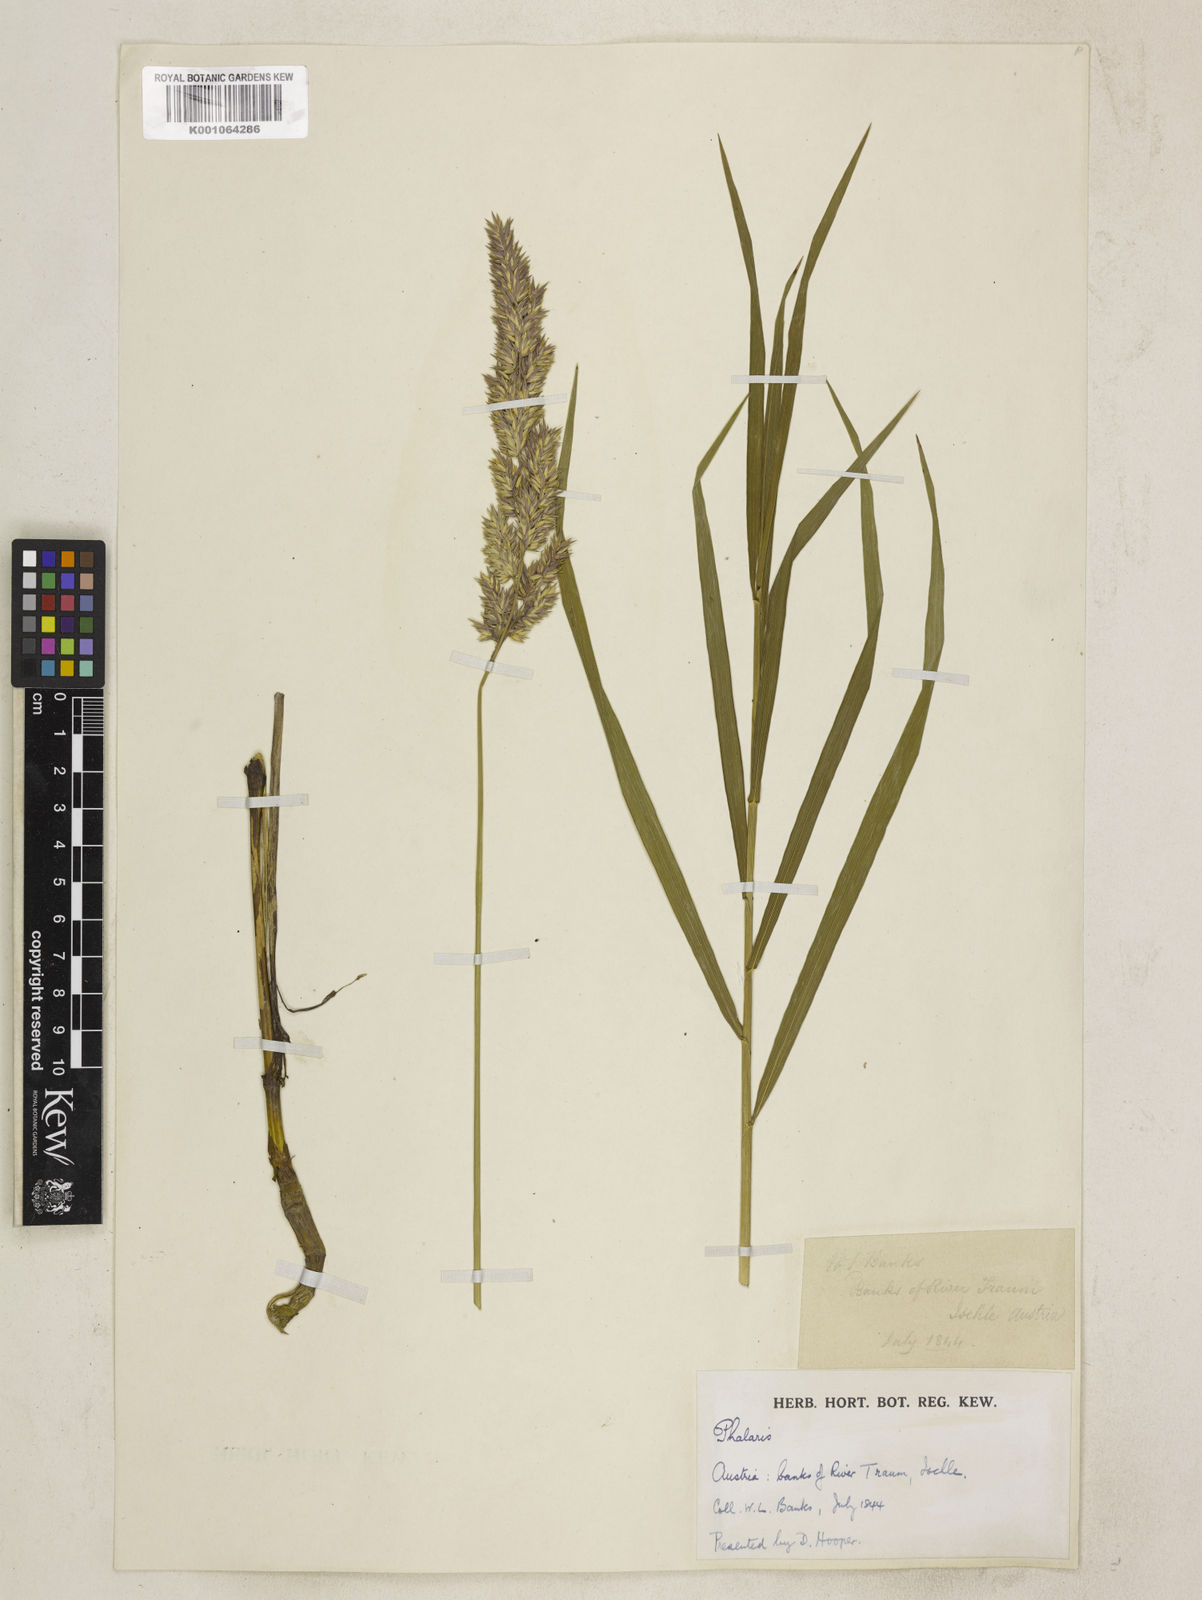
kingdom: Plantae
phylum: Tracheophyta
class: Liliopsida
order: Poales
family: Poaceae
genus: Phalaris
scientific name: Phalaris arundinacea
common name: Reed canary-grass
